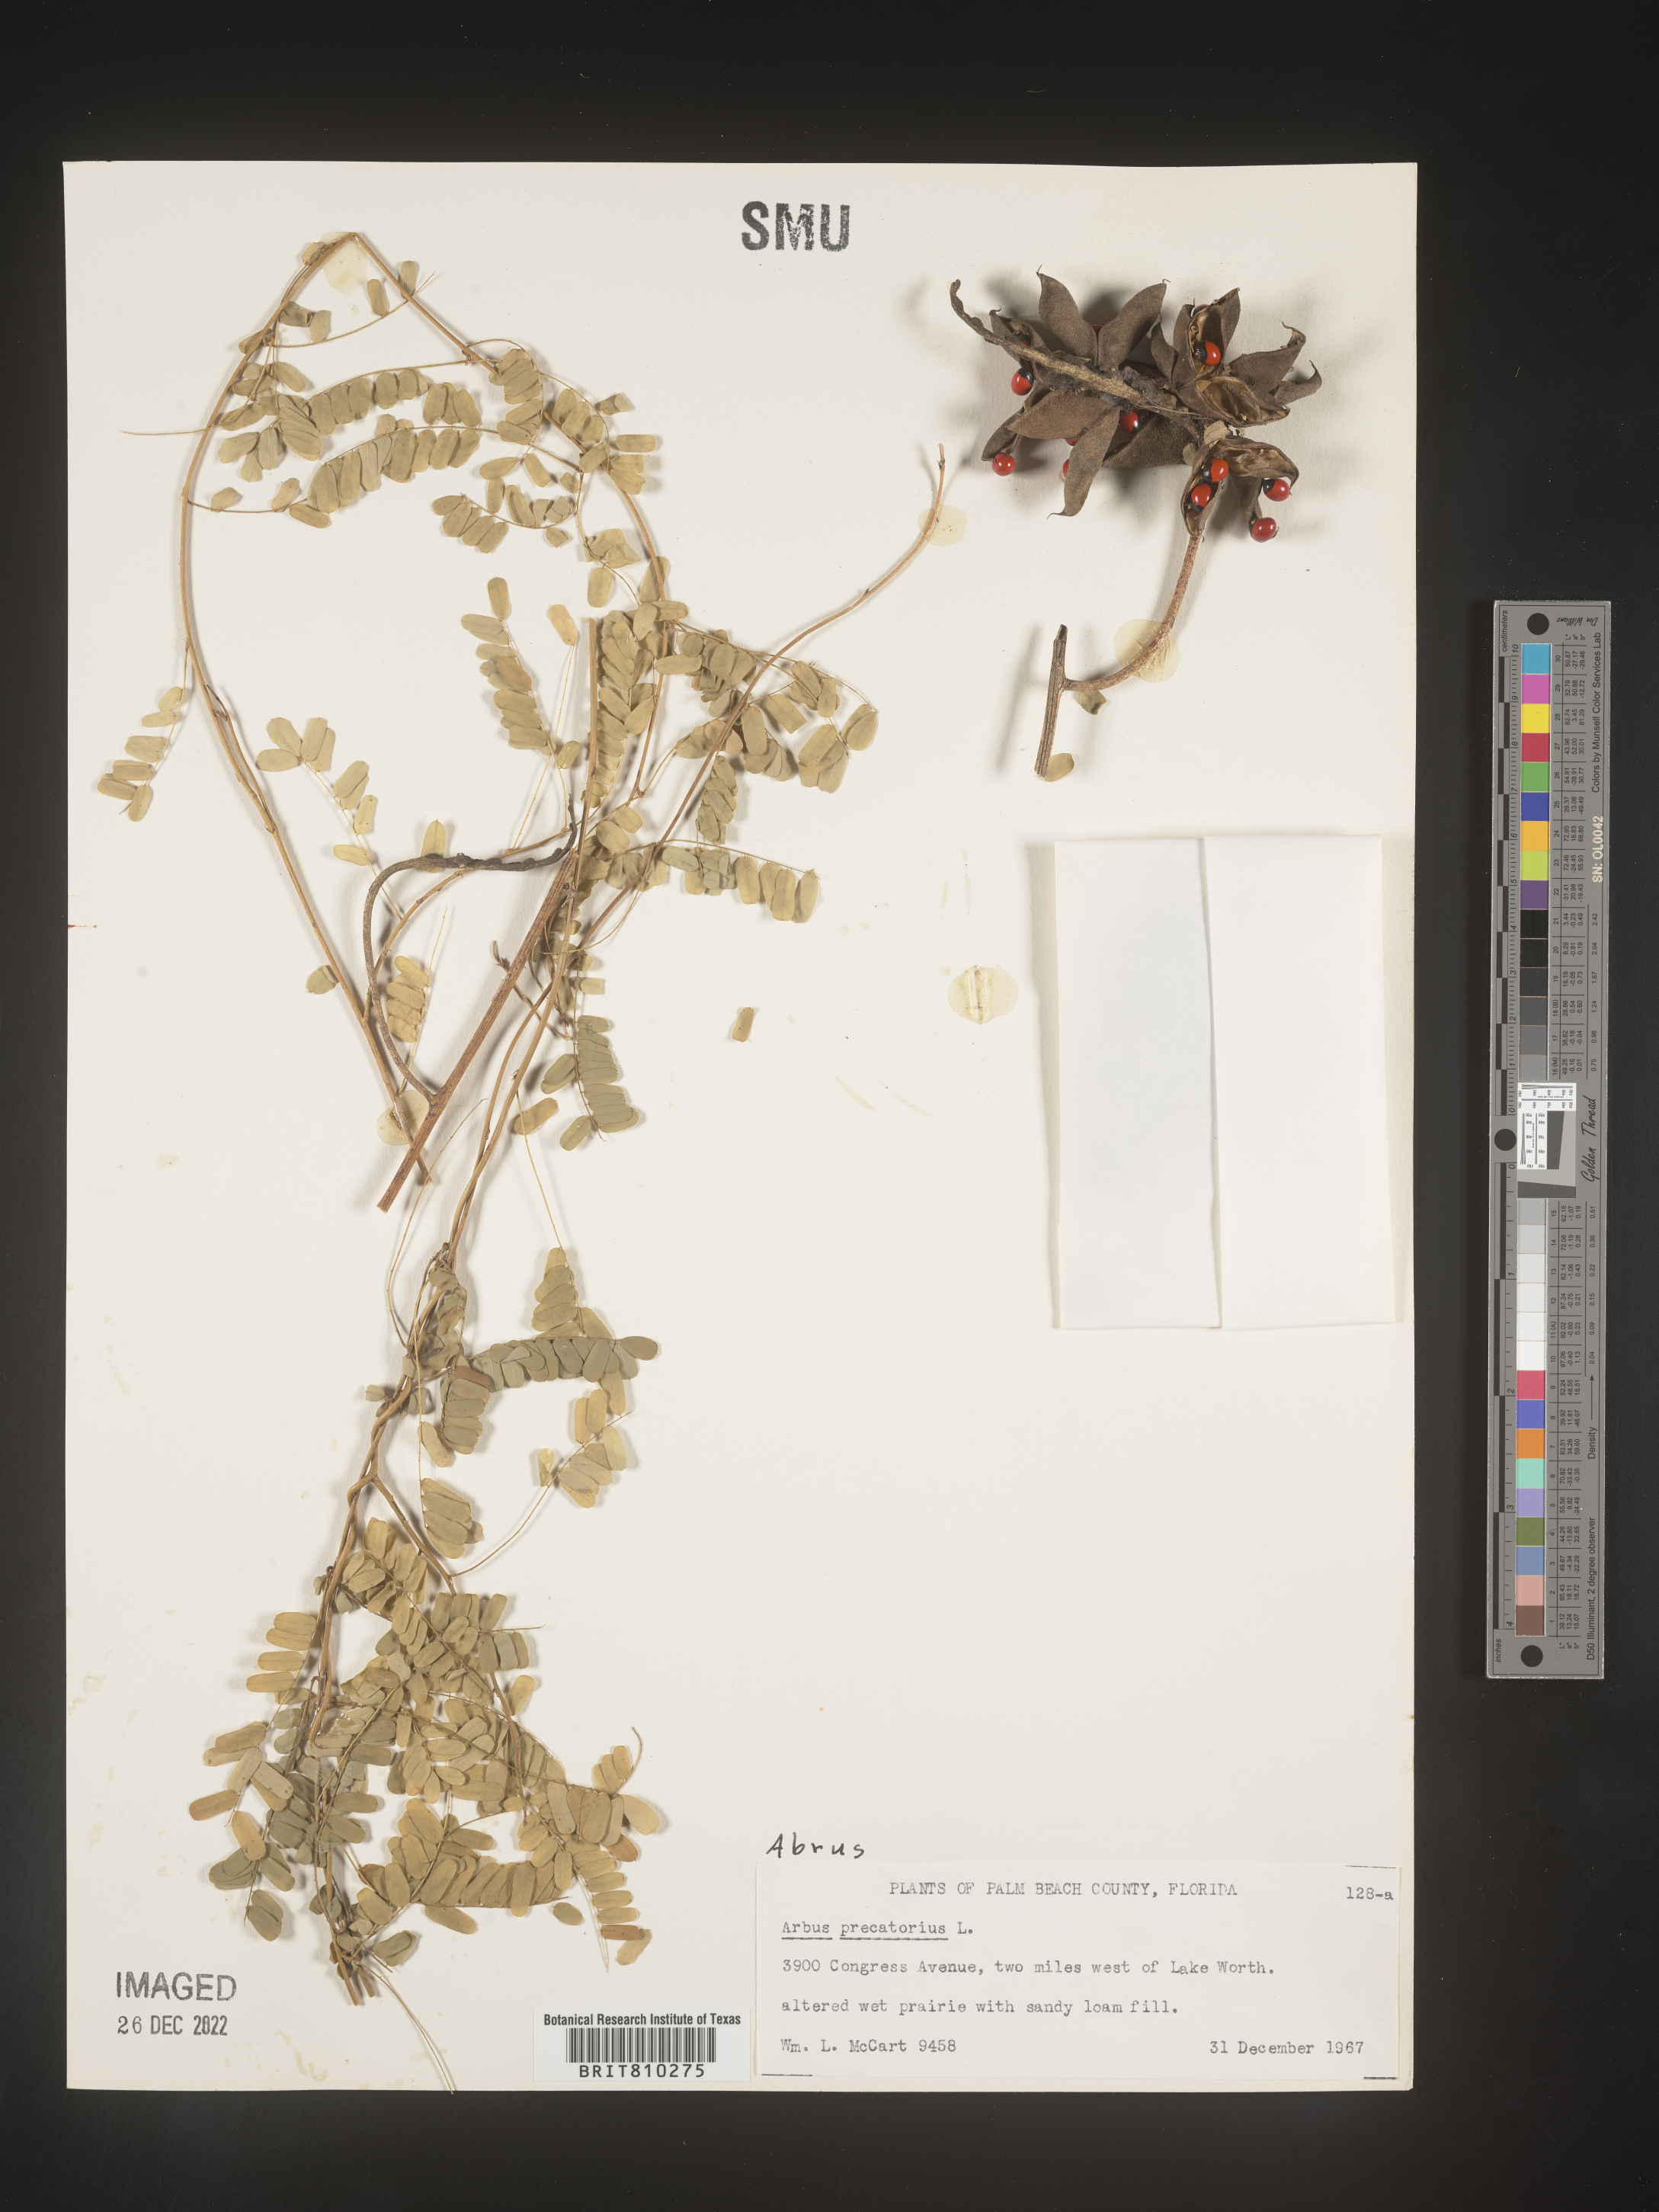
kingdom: Plantae
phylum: Tracheophyta
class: Magnoliopsida
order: Fabales
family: Fabaceae
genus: Abrus
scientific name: Abrus
